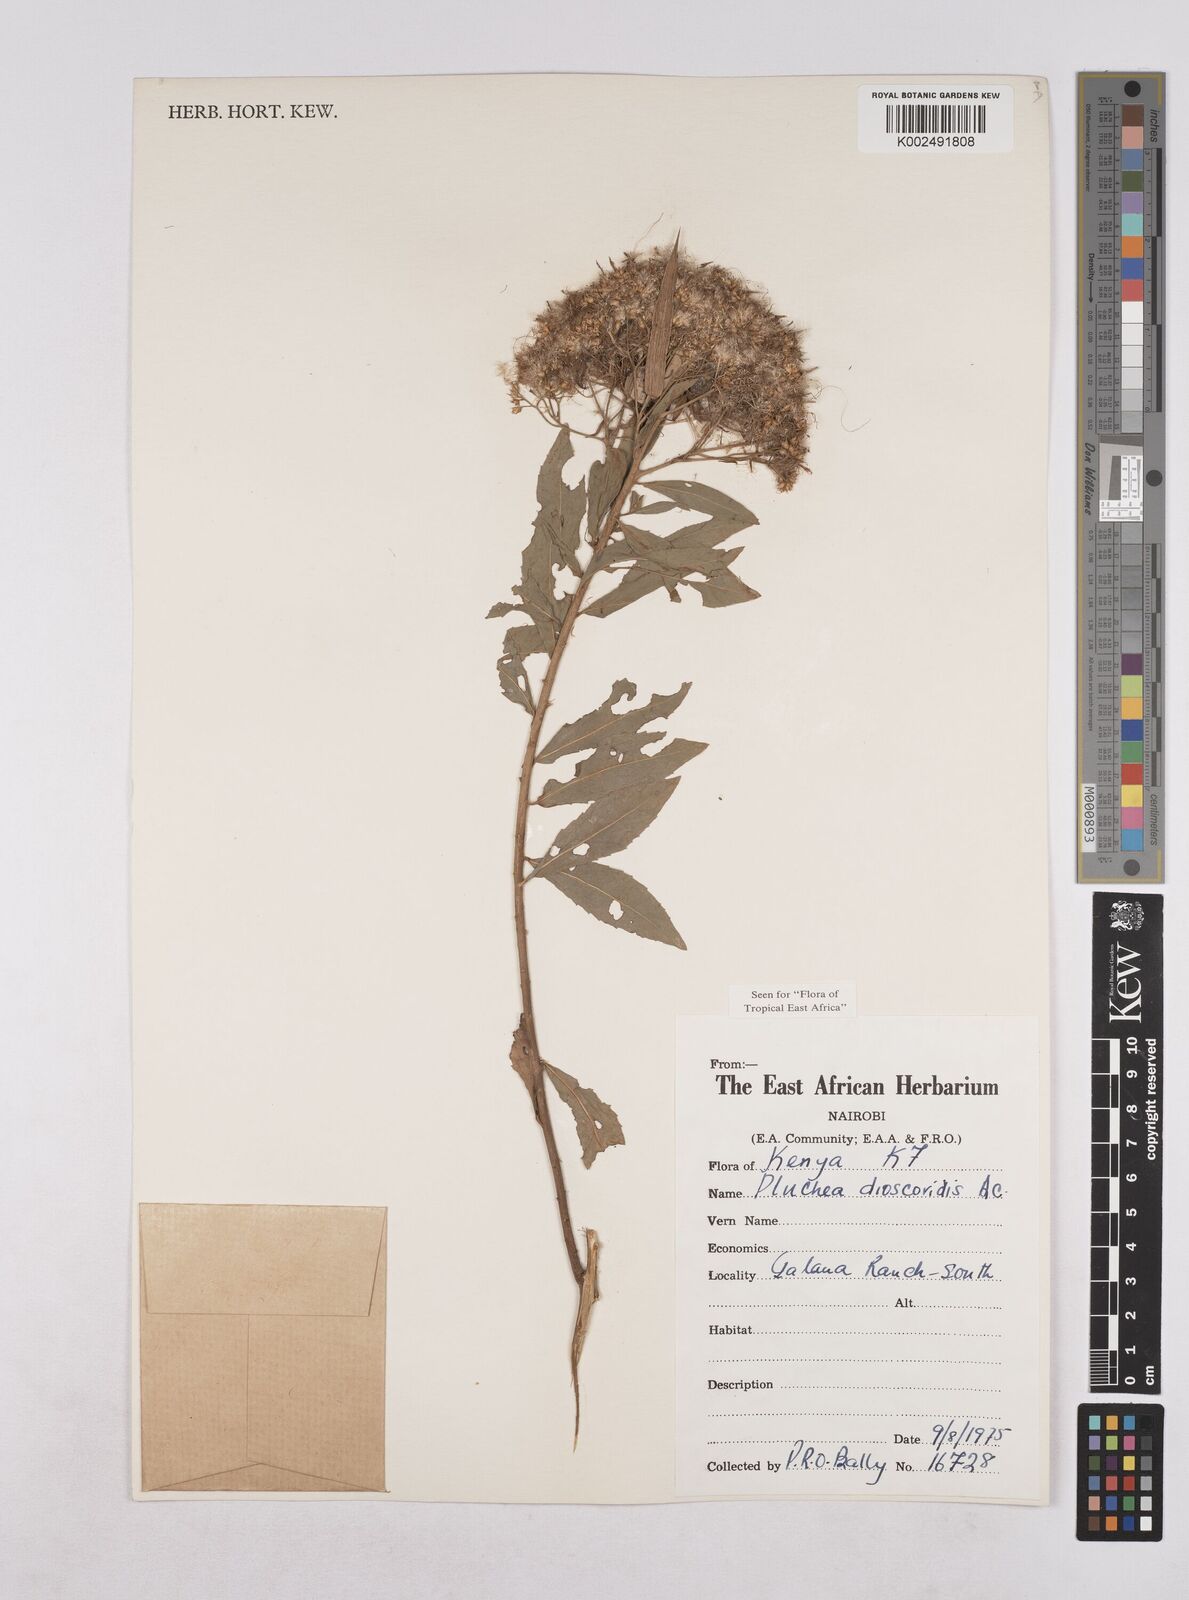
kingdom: Plantae
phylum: Tracheophyta
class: Magnoliopsida
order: Asterales
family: Asteraceae
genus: Pluchea
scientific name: Pluchea dioscoridis
